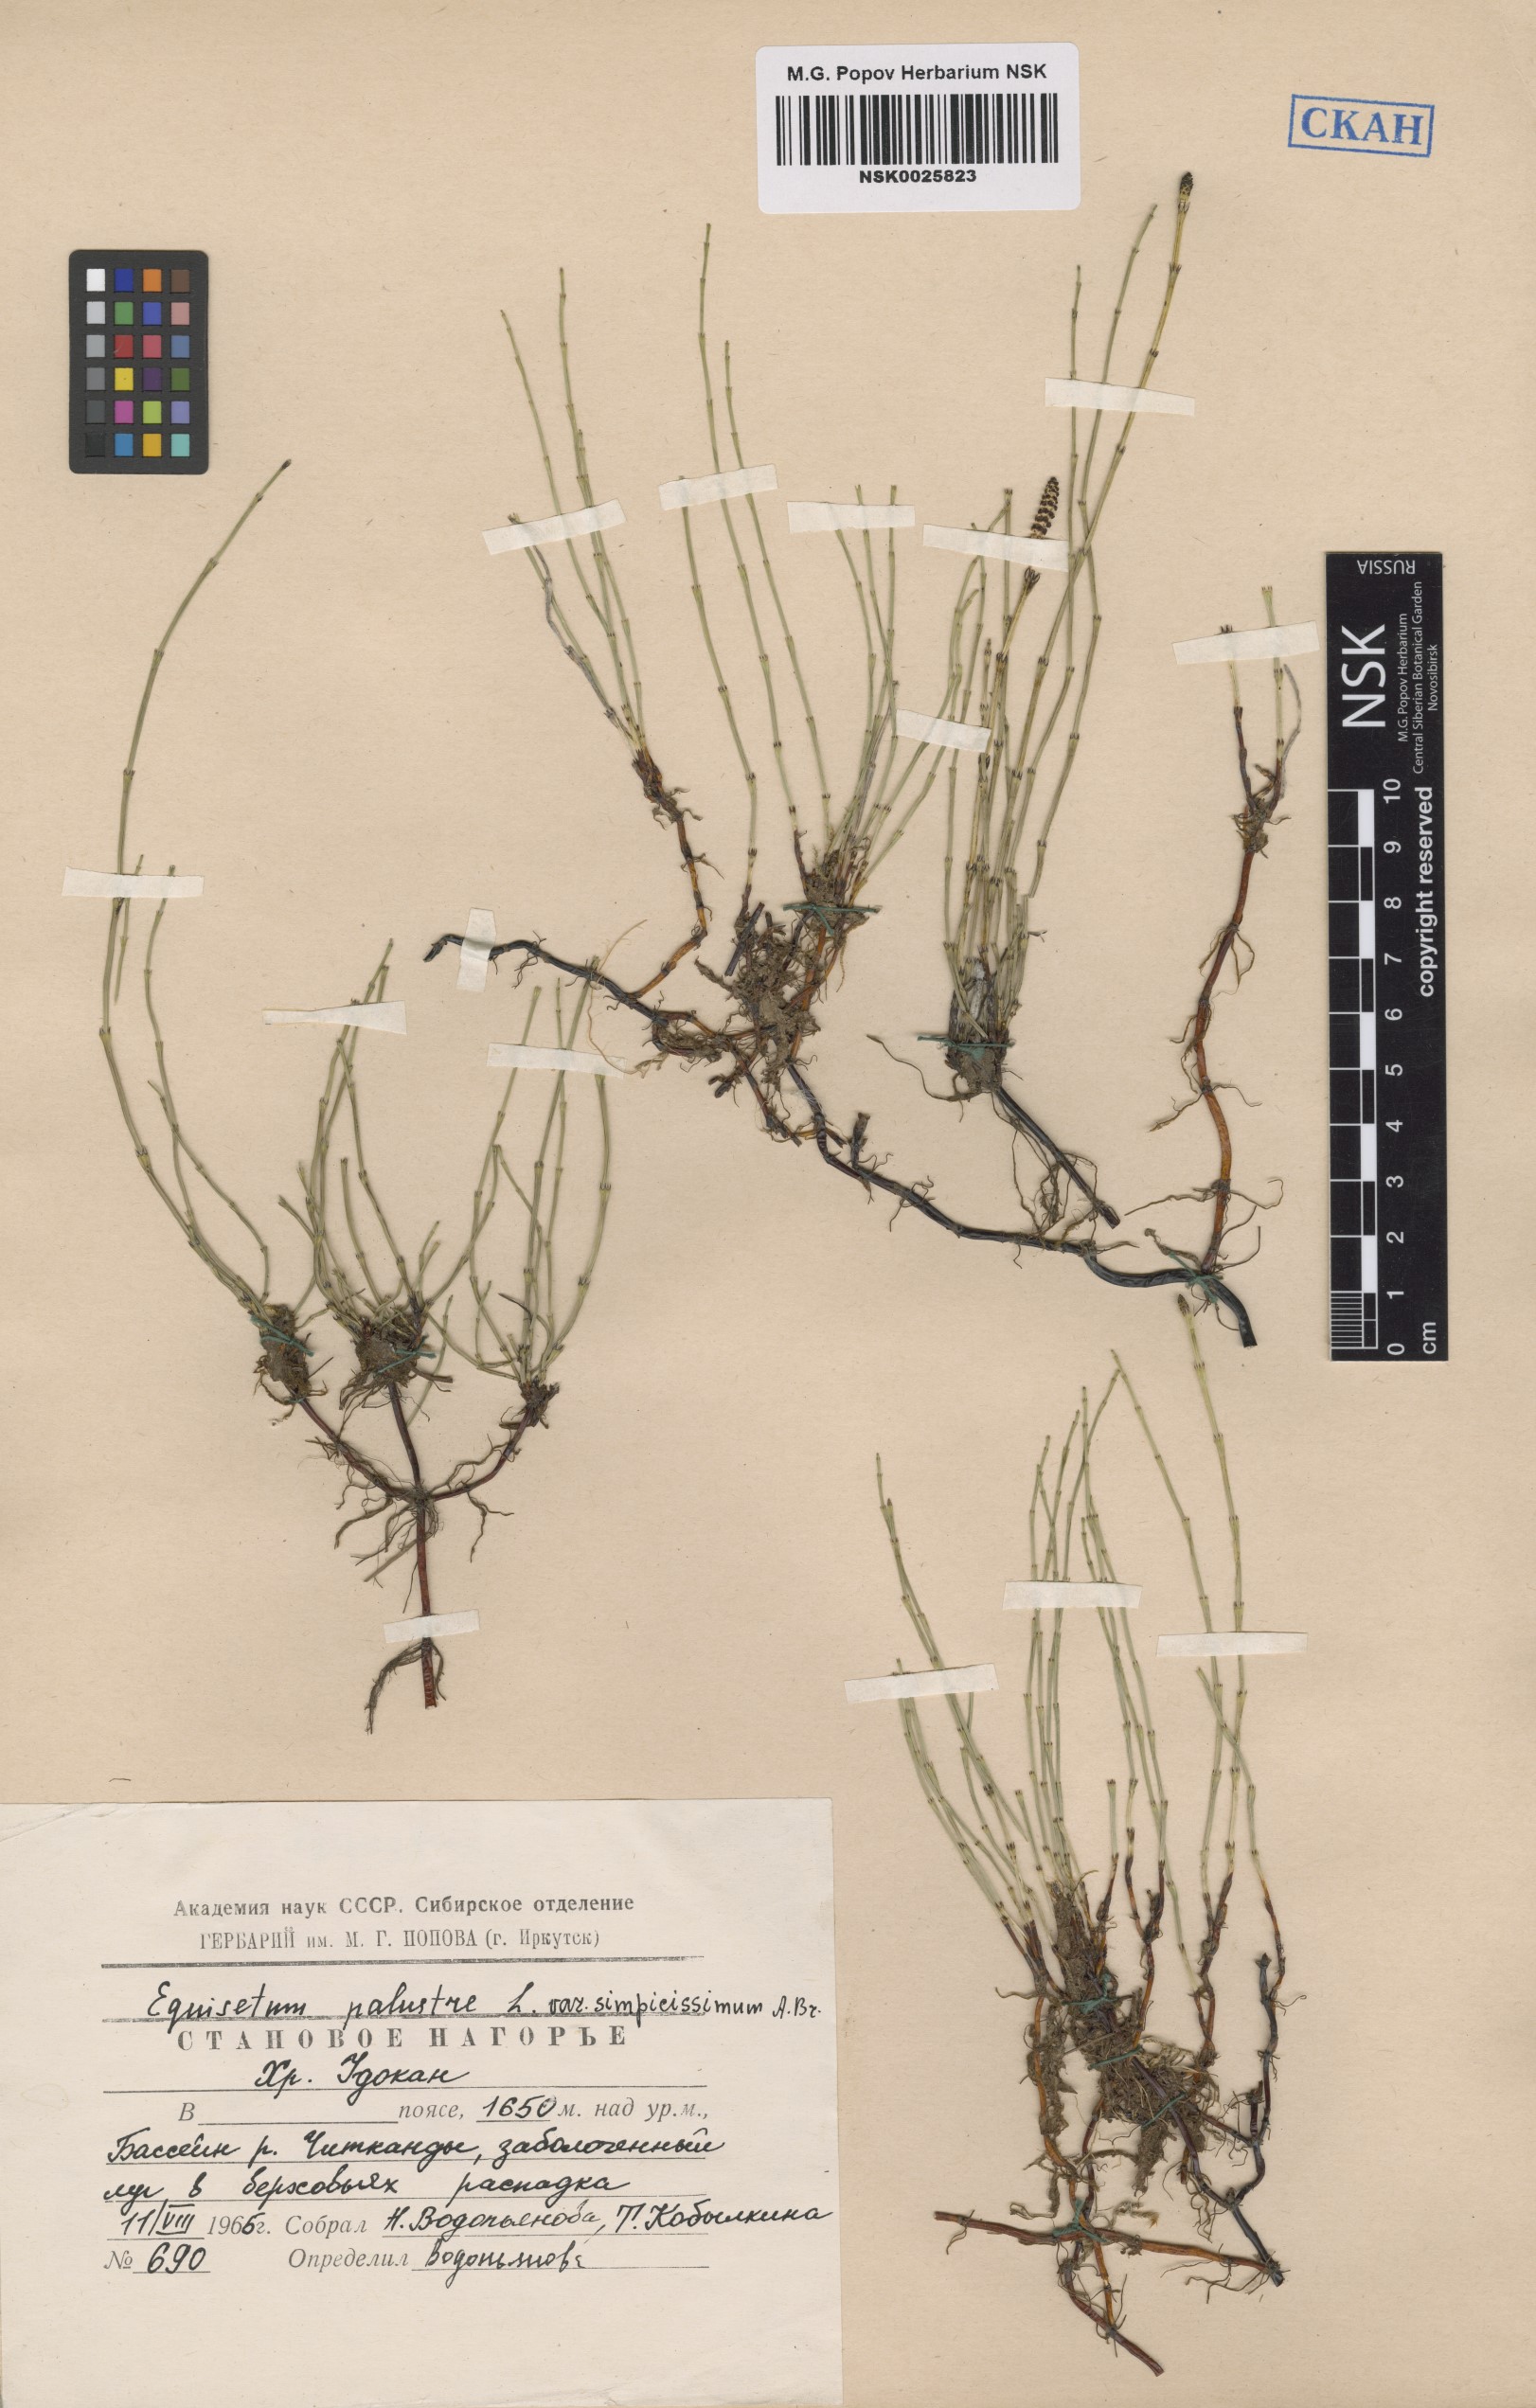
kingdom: Plantae
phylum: Tracheophyta
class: Polypodiopsida
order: Equisetales
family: Equisetaceae
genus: Equisetum
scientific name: Equisetum palustre
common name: Marsh horsetail
